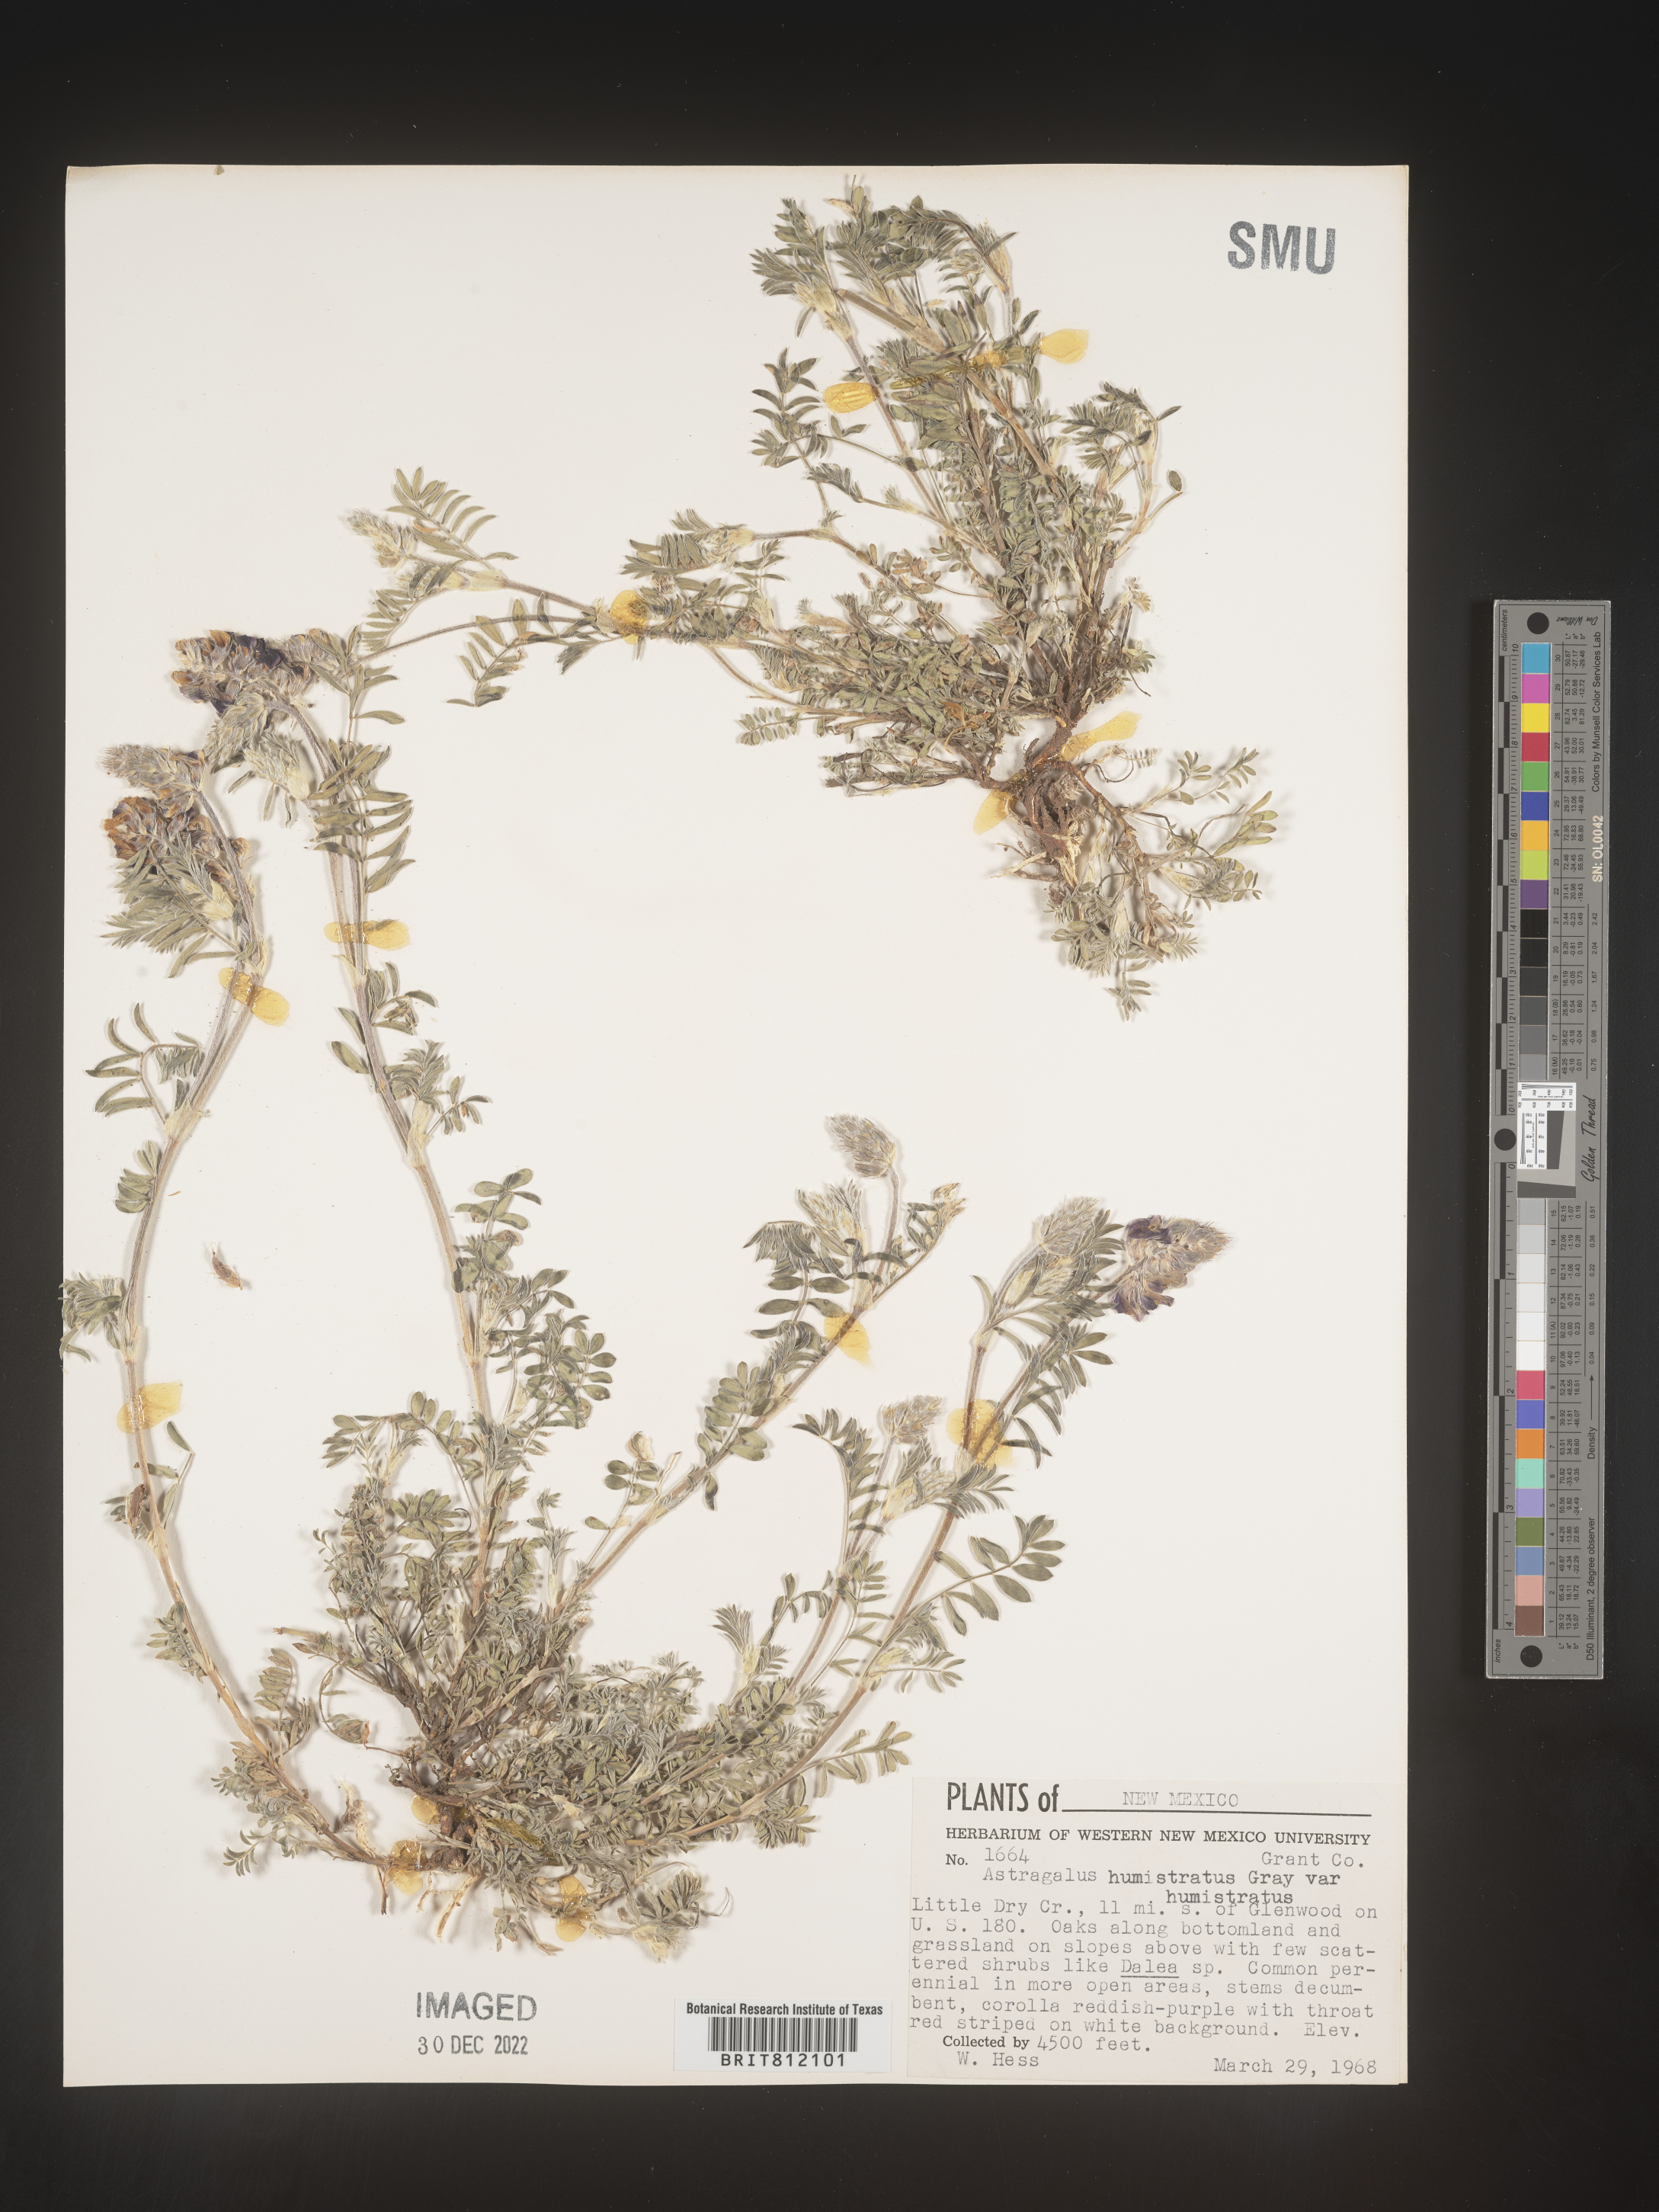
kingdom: Plantae
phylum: Tracheophyta
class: Magnoliopsida
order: Fabales
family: Fabaceae
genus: Astragalus
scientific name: Astragalus
